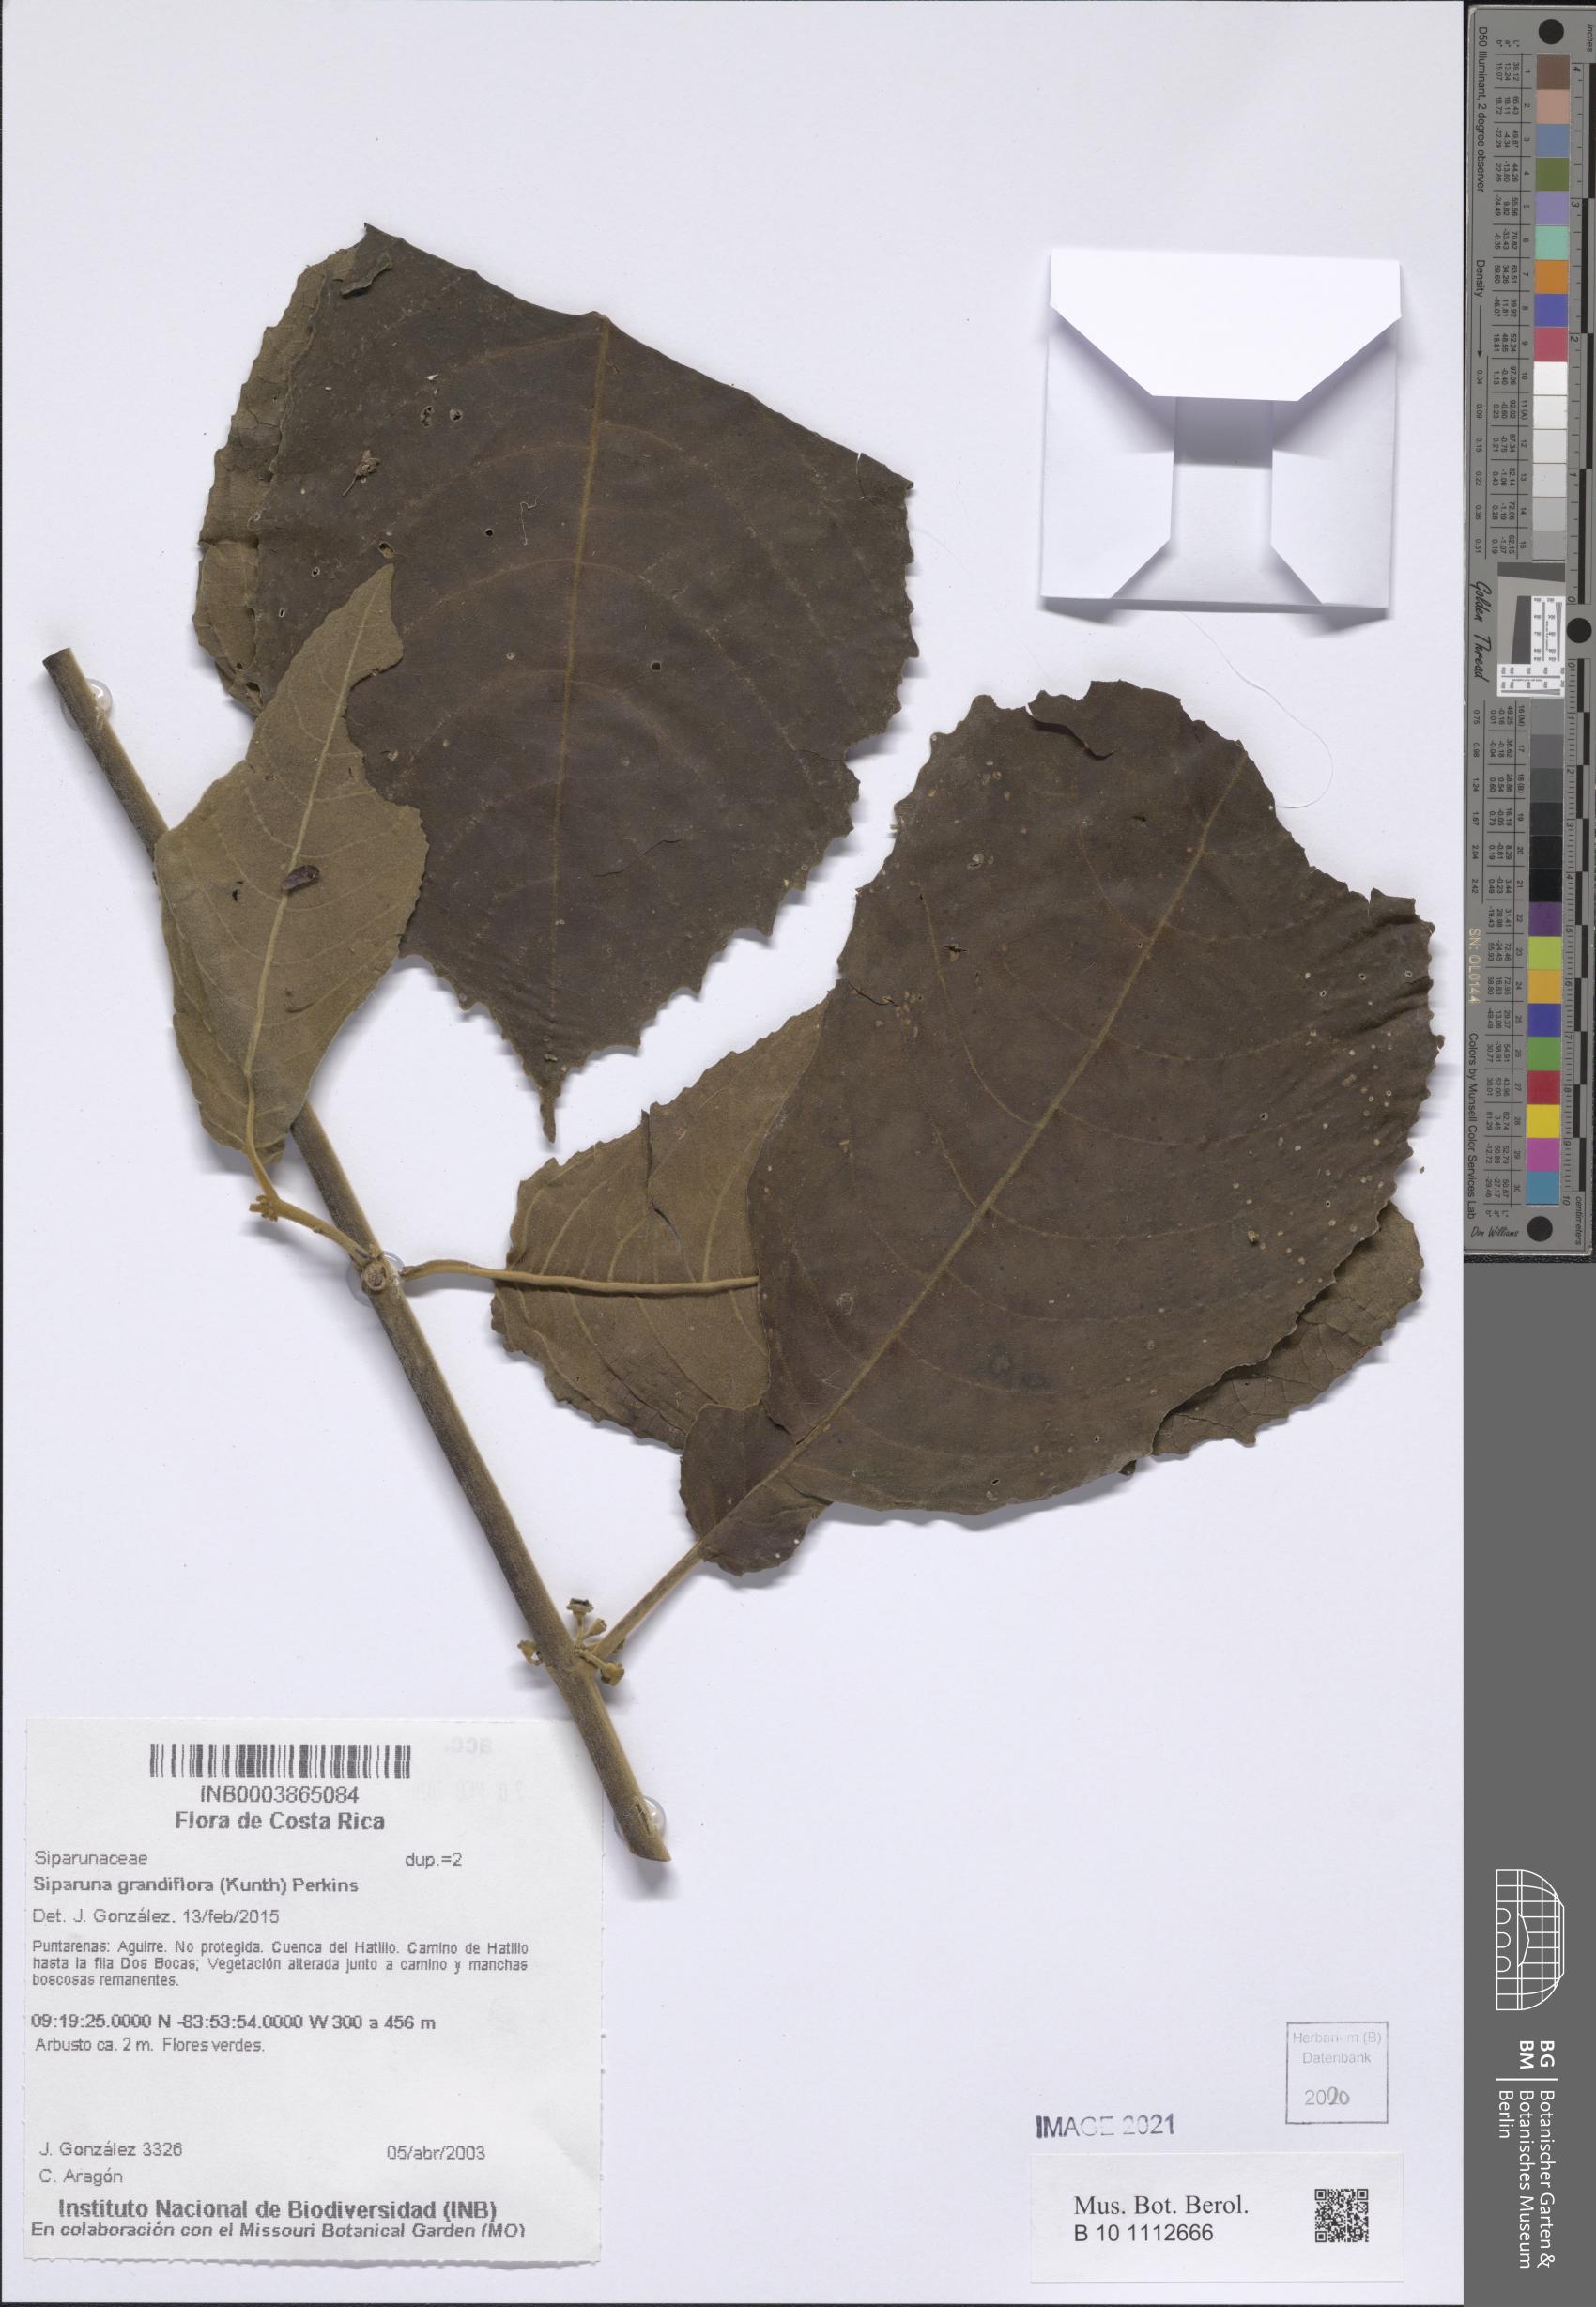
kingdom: Plantae
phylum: Tracheophyta
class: Magnoliopsida
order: Laurales
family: Siparunaceae
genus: Siparuna
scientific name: Siparuna grandiflora
